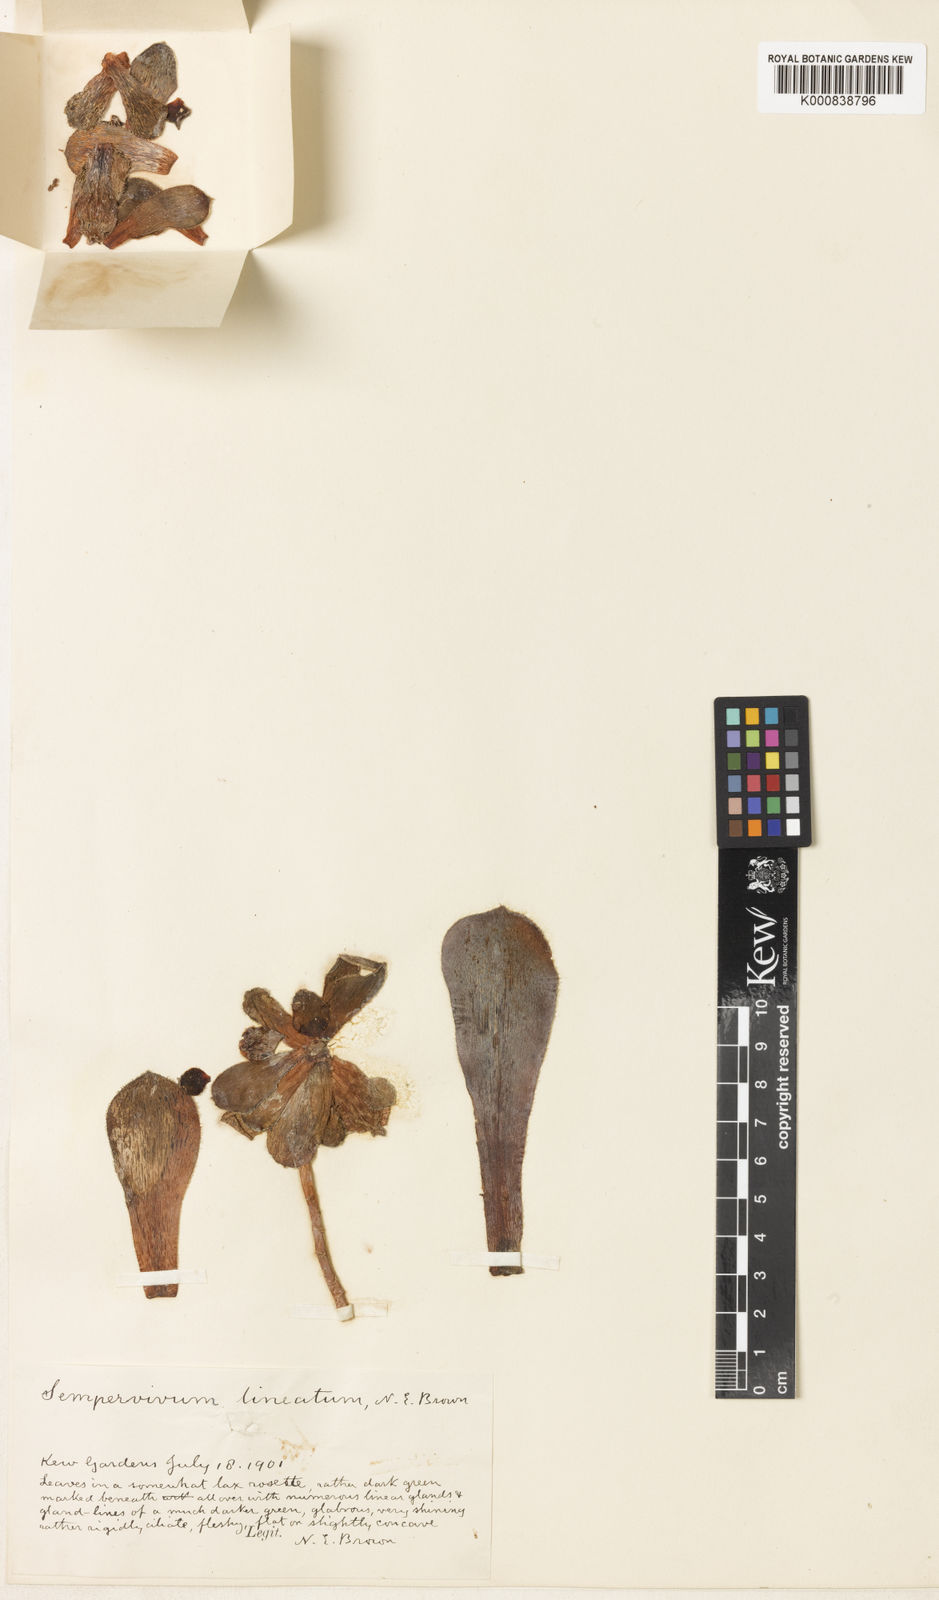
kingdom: Plantae
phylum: Tracheophyta
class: Magnoliopsida
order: Saxifragales
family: Crassulaceae
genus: Sempervivum
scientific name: Sempervivum
